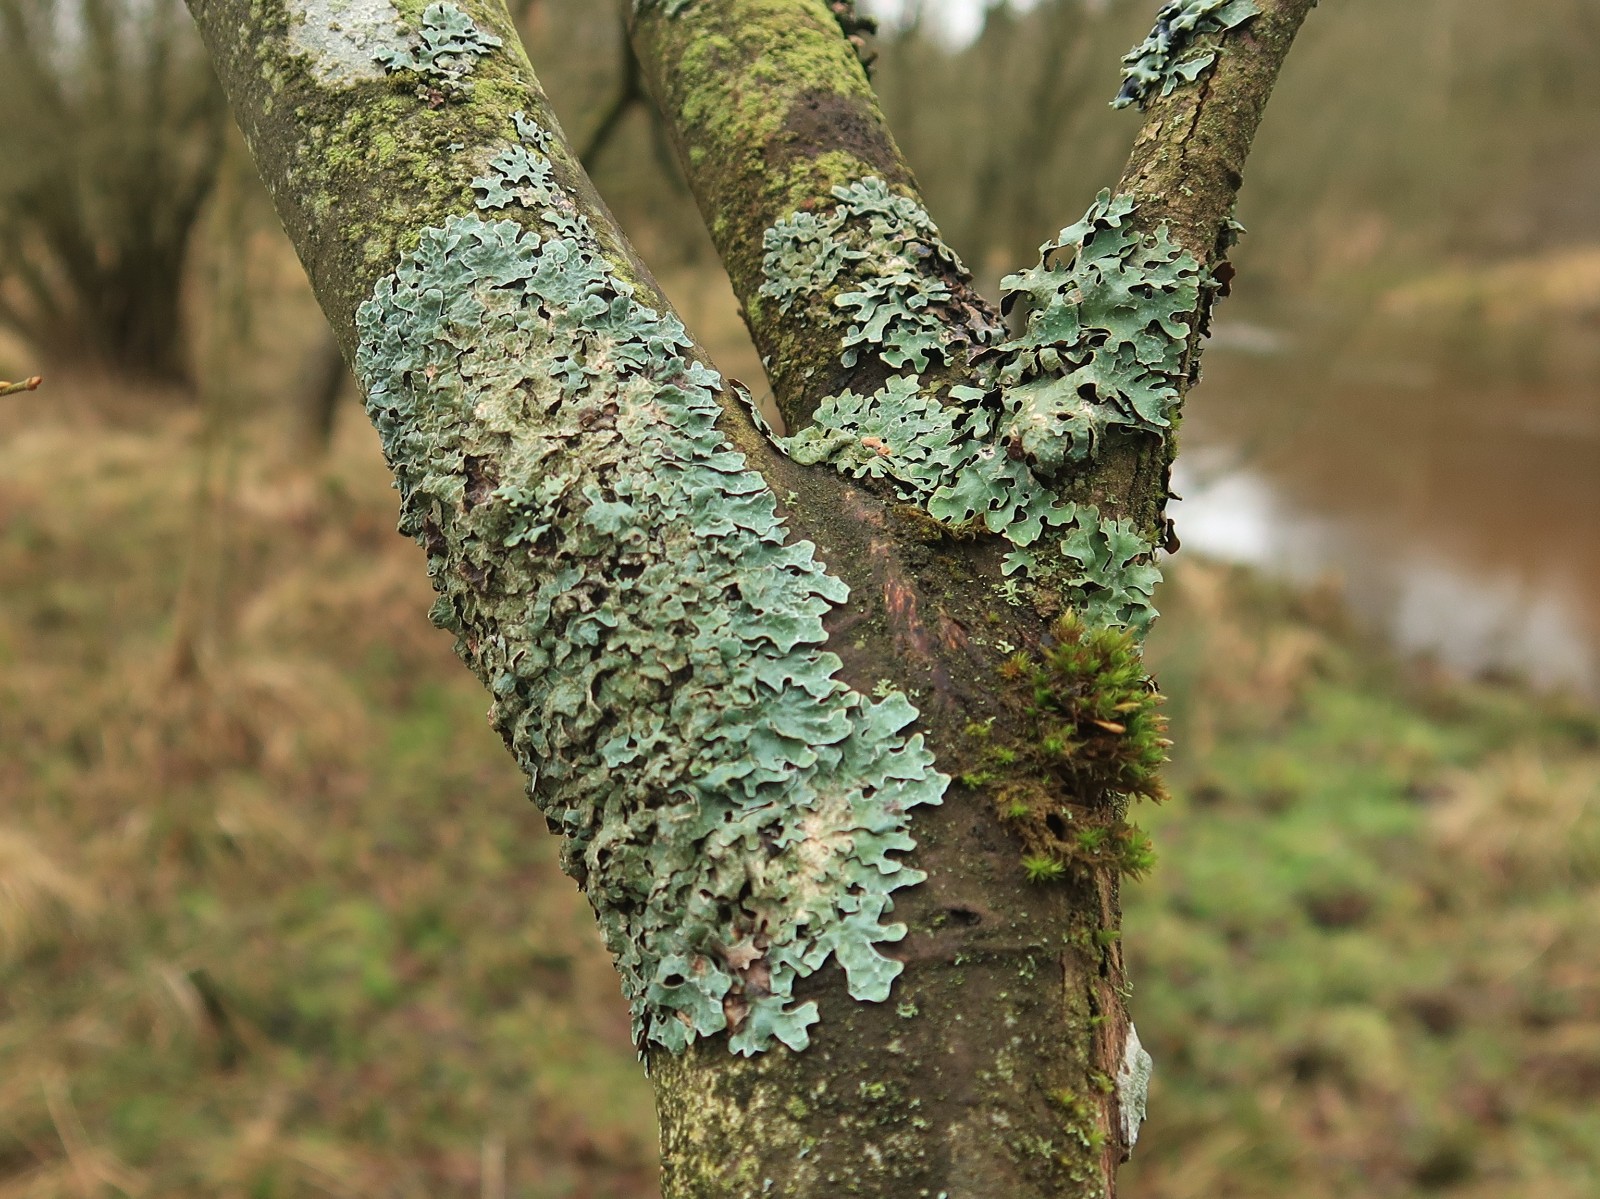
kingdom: Fungi
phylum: Ascomycota
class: Lecanoromycetes
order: Lecanorales
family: Parmeliaceae
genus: Parmelia
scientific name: Parmelia sulcata
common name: rynket skållav
